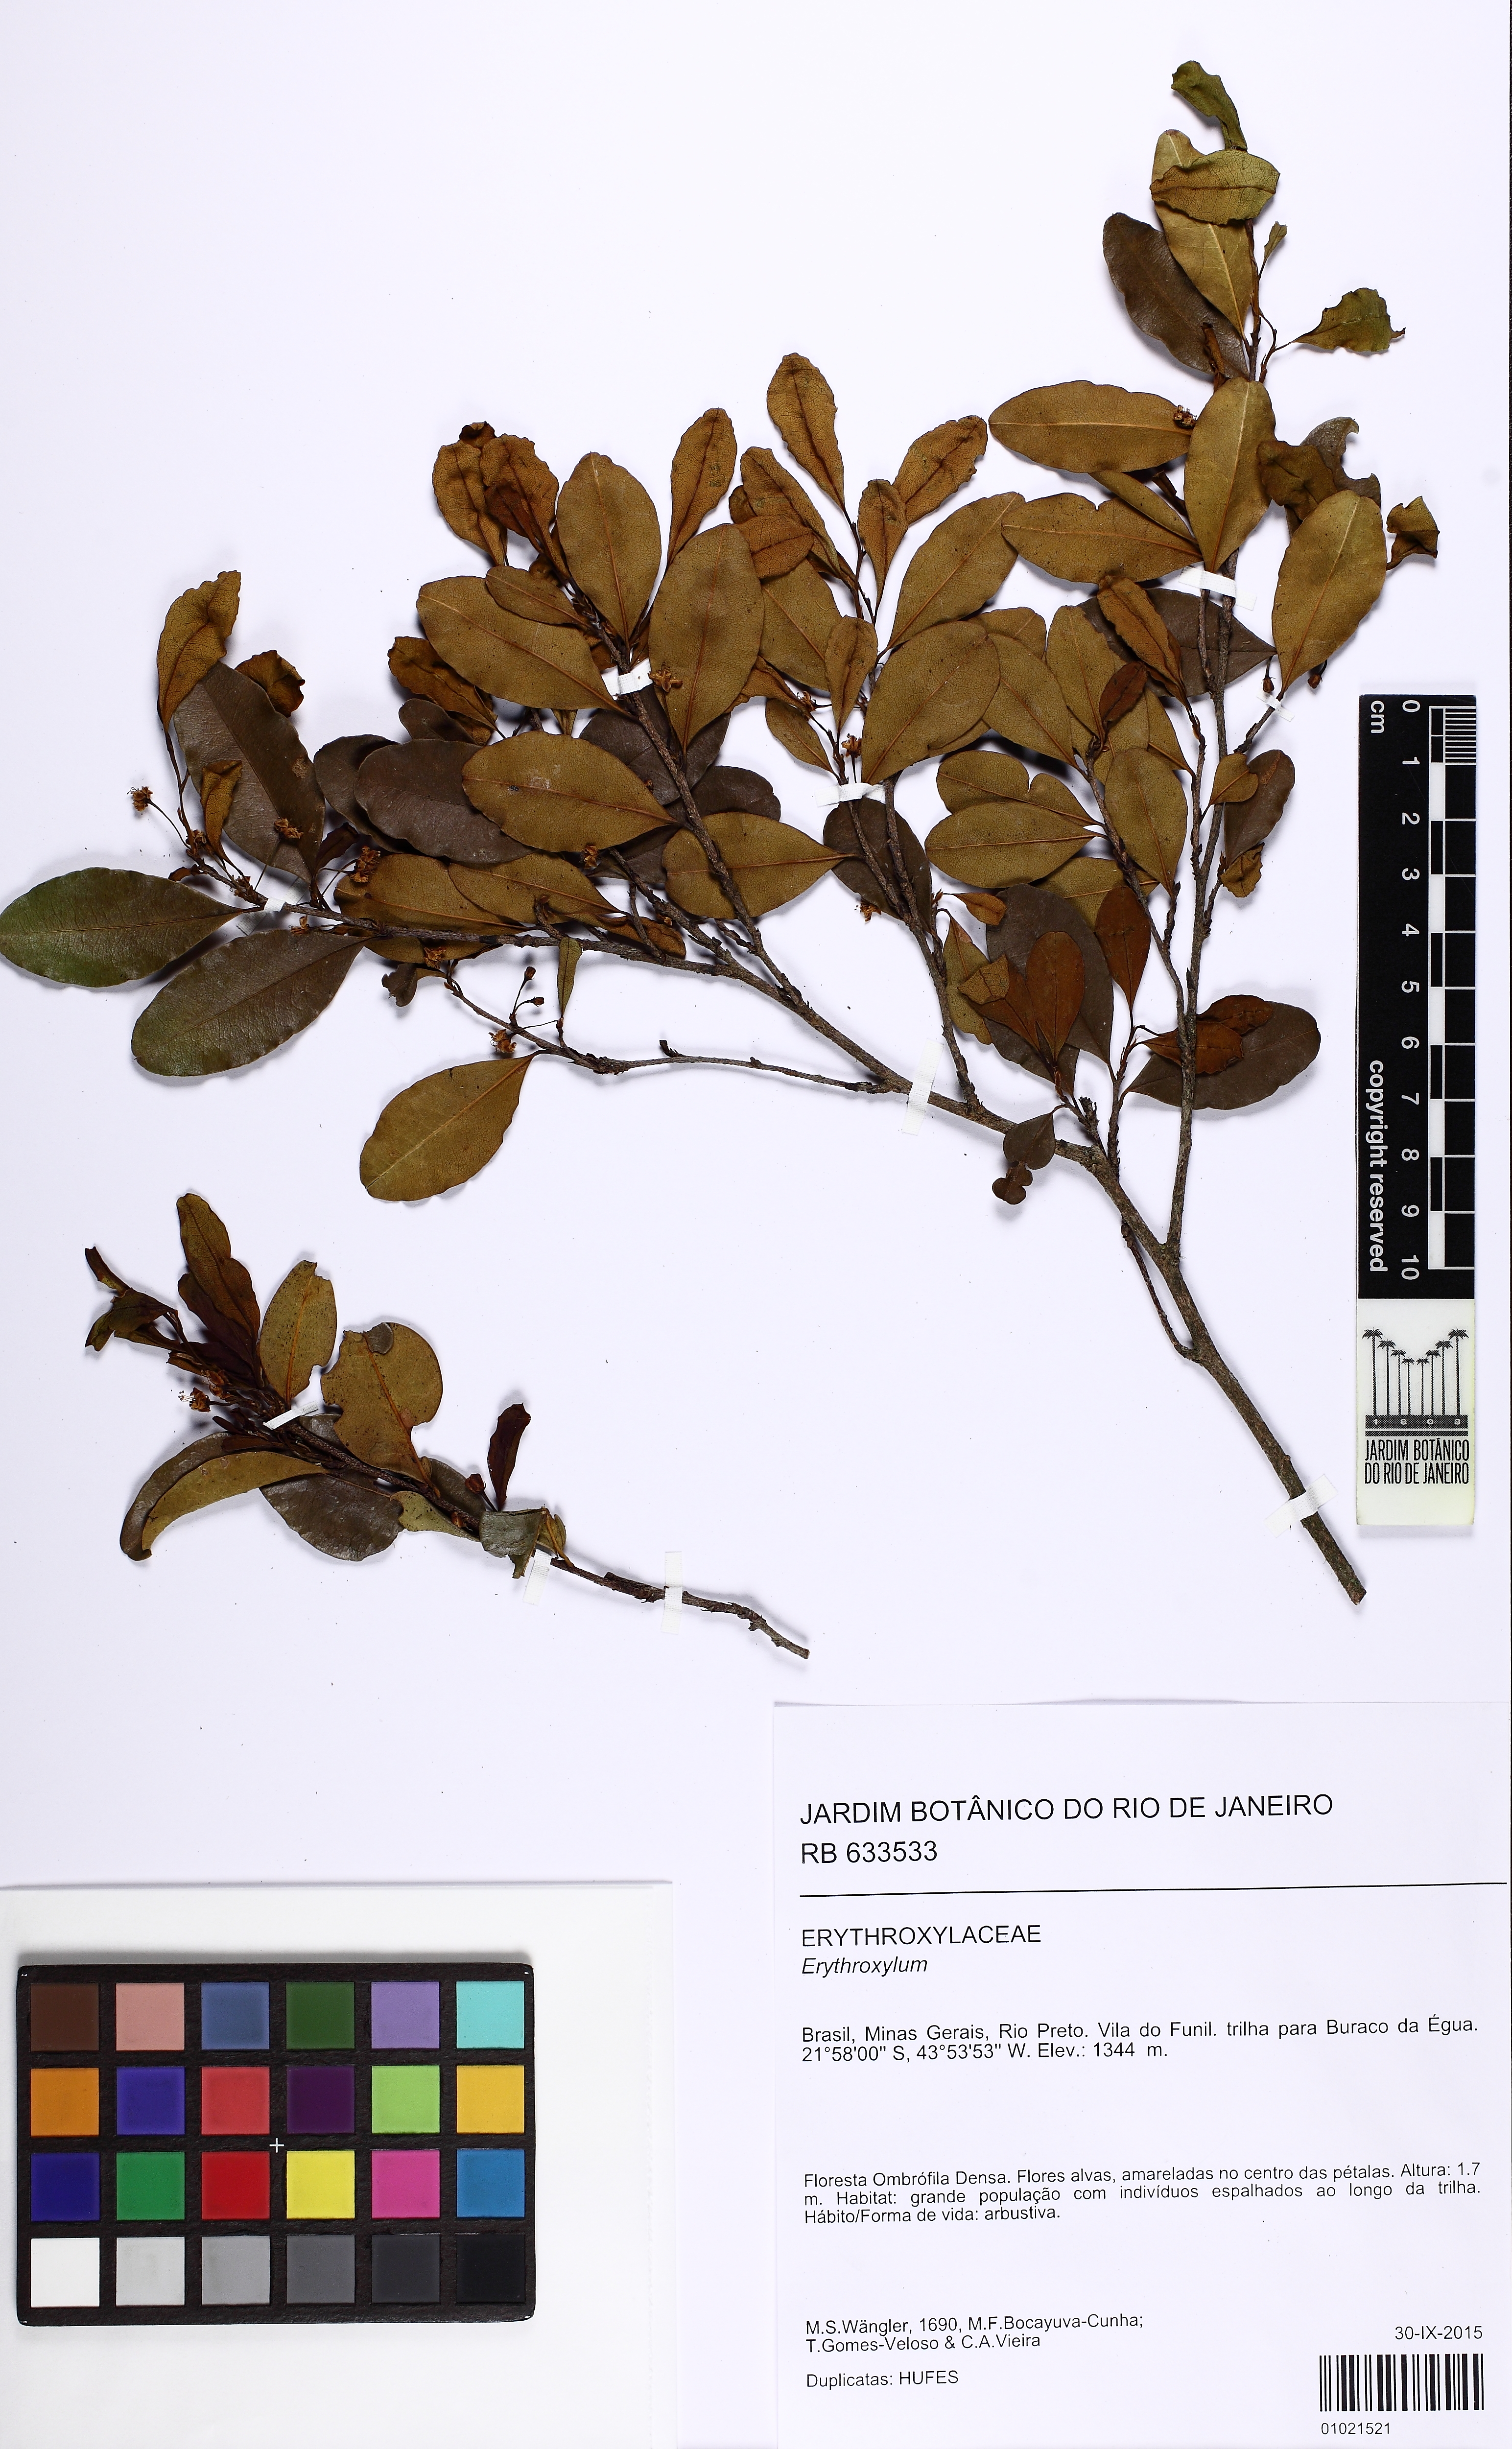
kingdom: Plantae
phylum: Tracheophyta
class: Magnoliopsida
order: Malpighiales
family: Erythroxylaceae
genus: Erythroxylum
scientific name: Erythroxylum
